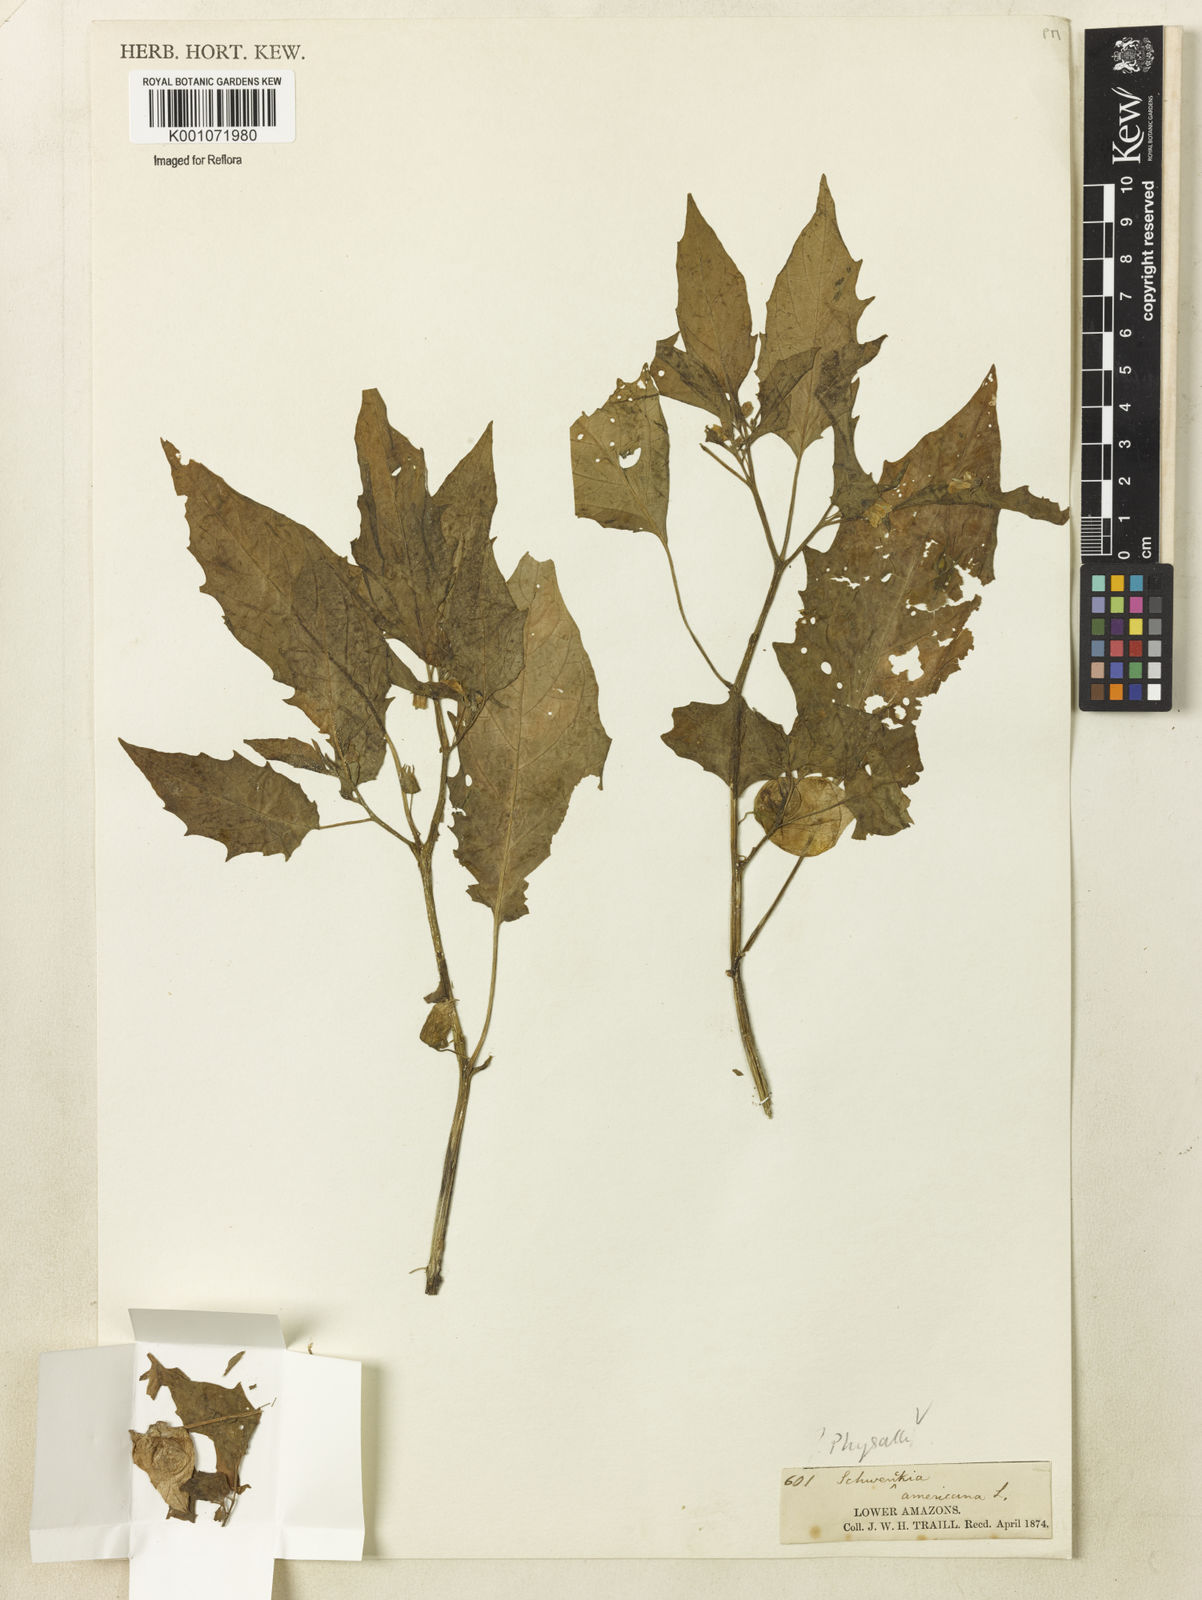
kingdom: Plantae
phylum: Tracheophyta
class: Magnoliopsida
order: Solanales
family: Solanaceae
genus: Physalis
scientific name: Physalis
